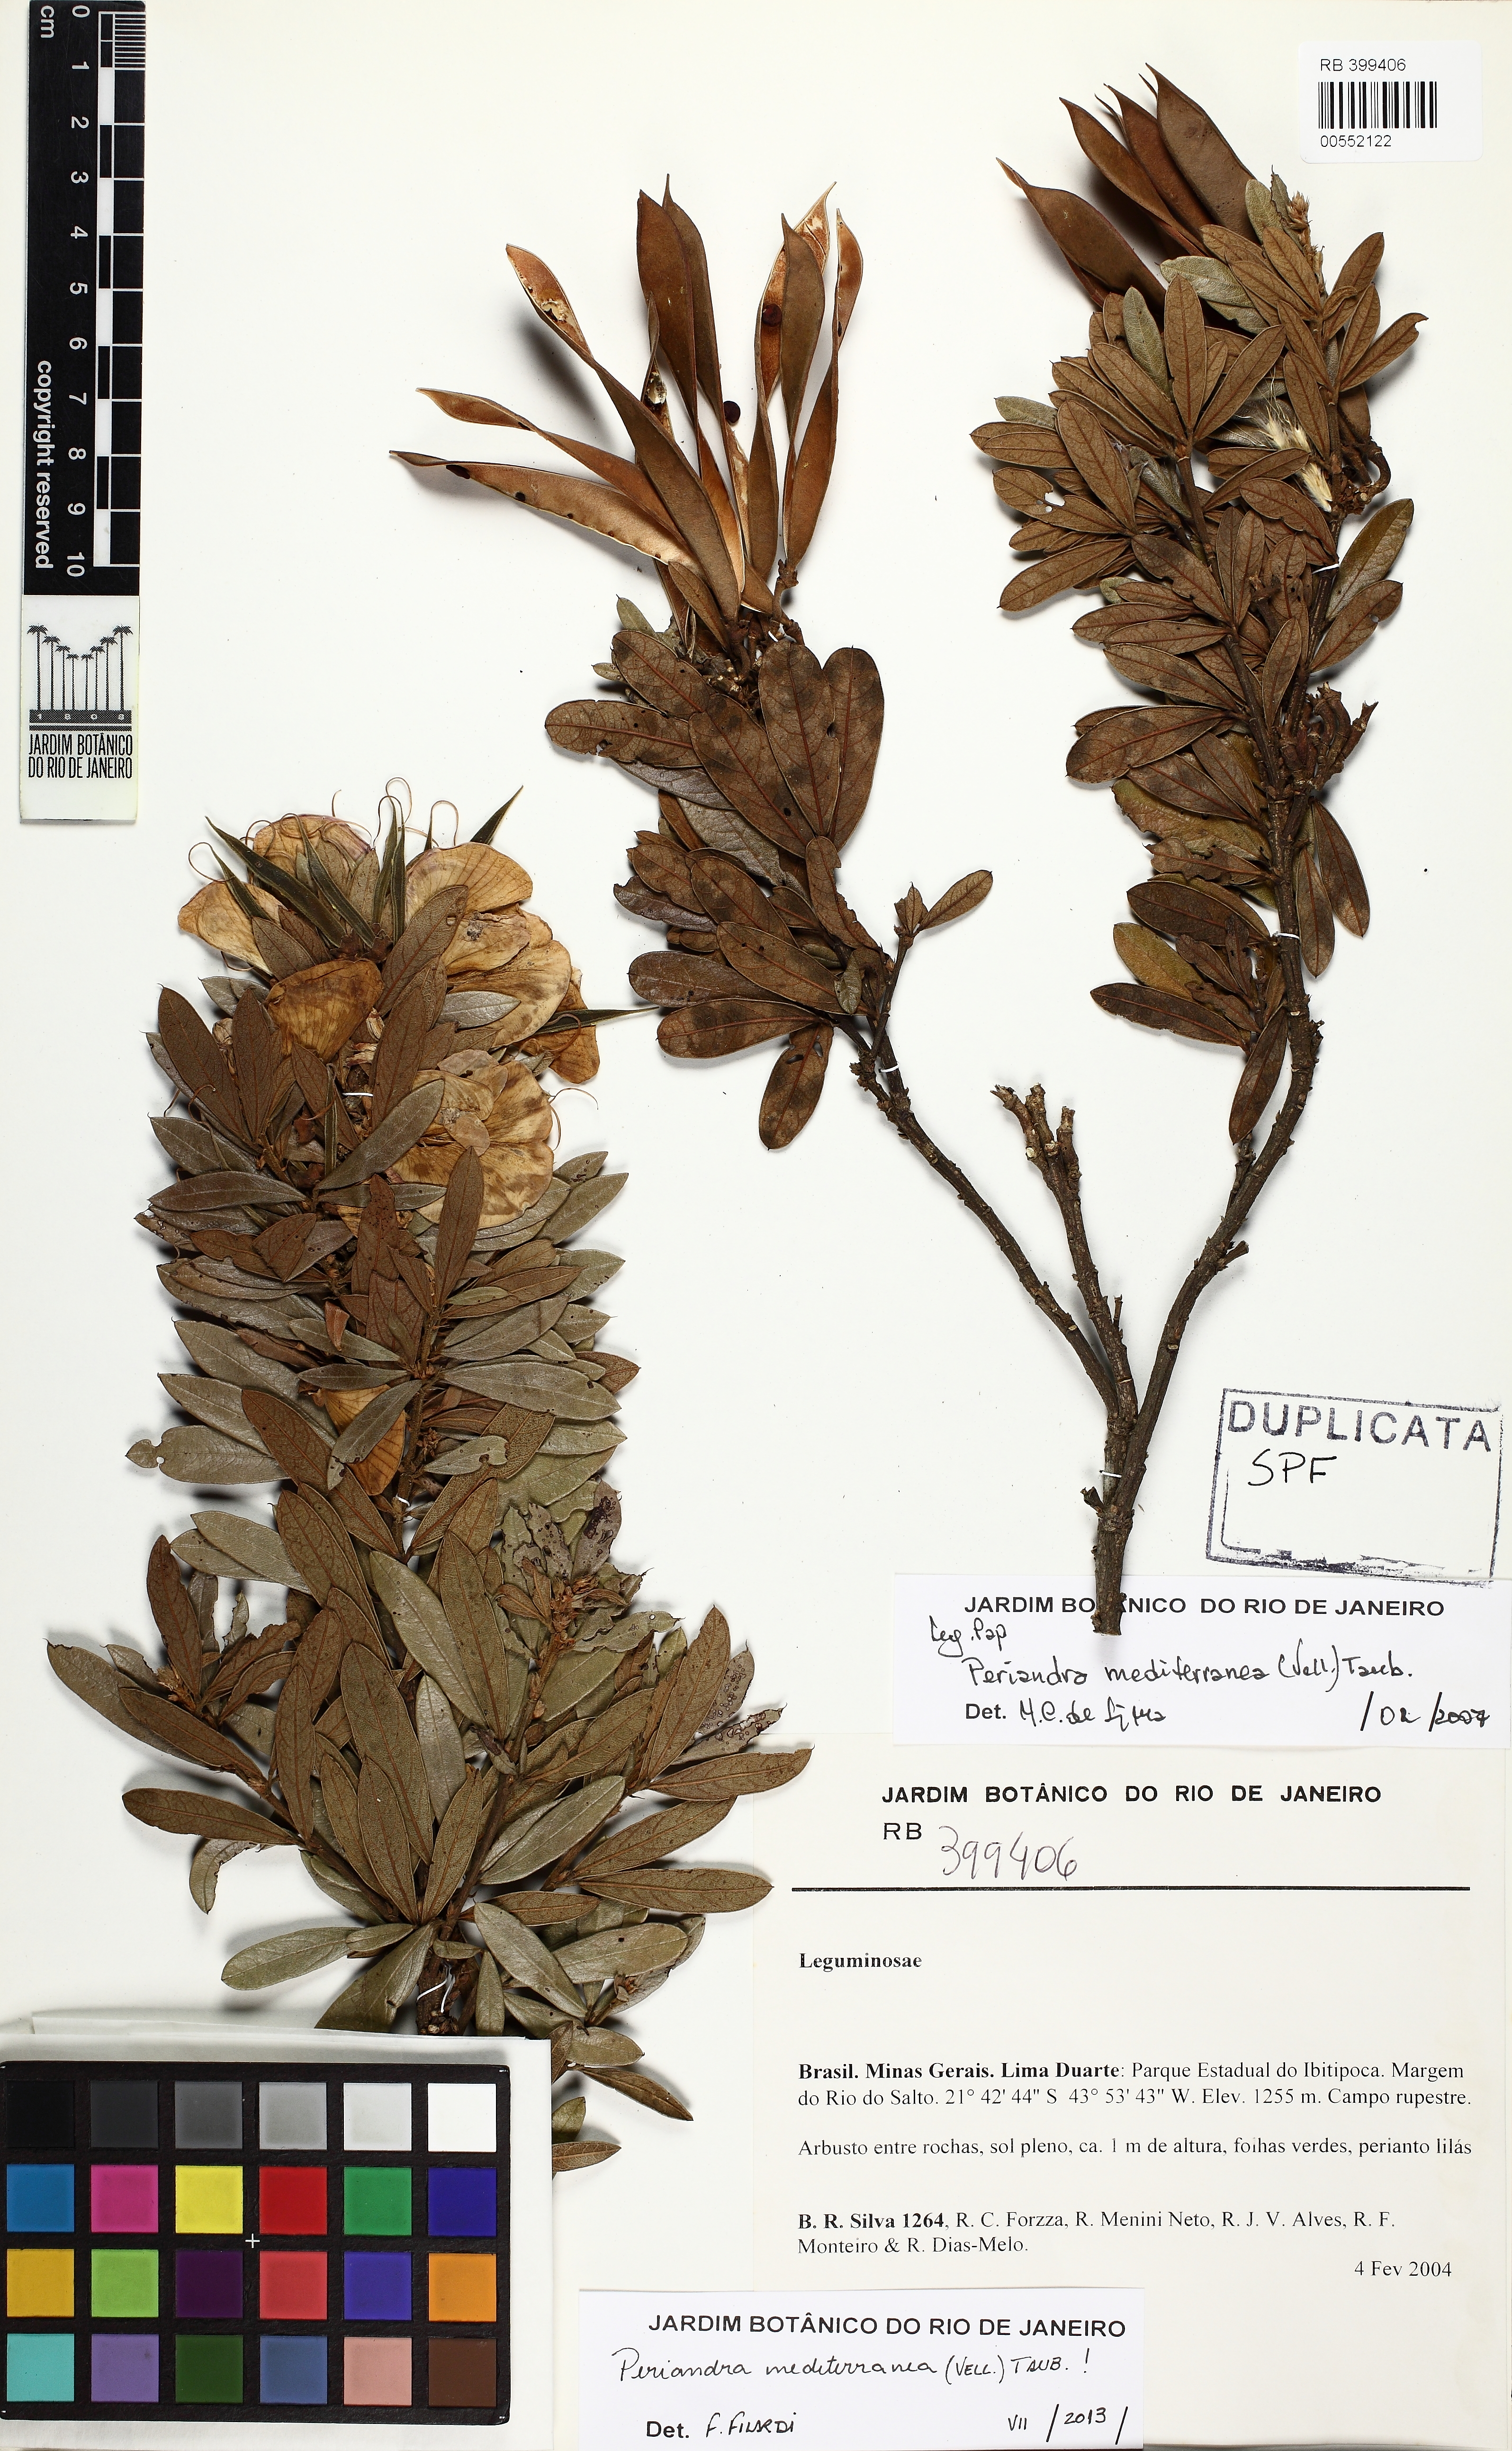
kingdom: Plantae
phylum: Tracheophyta
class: Magnoliopsida
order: Fabales
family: Fabaceae
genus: Periandra
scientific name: Periandra mediterranea
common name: Brazilian licorice
